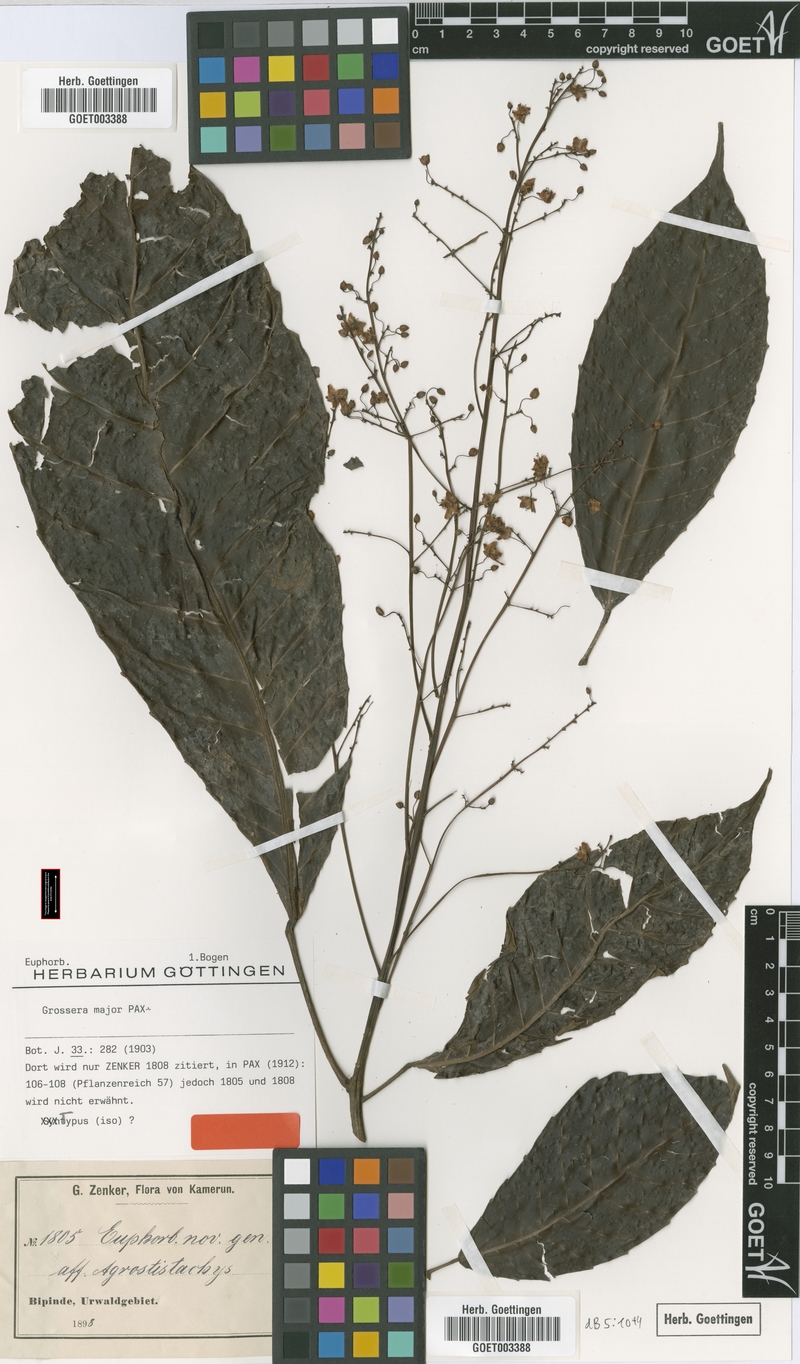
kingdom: Plantae
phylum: Tracheophyta
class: Magnoliopsida
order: Malpighiales
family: Euphorbiaceae
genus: Grossera
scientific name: Grossera major
